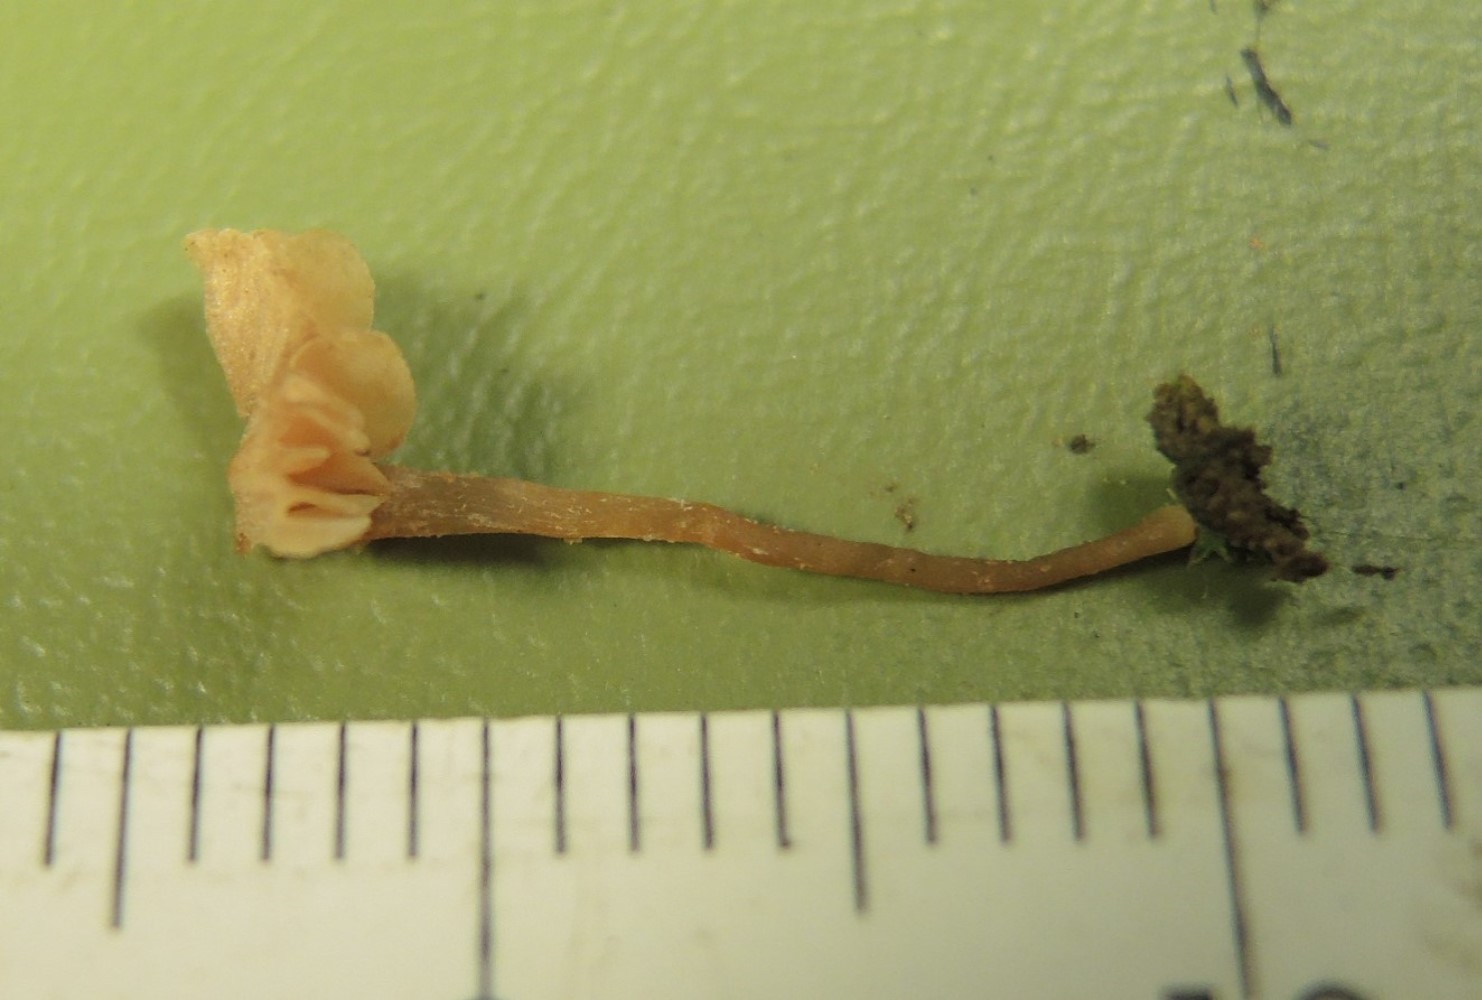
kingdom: Fungi
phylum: Basidiomycota
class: Agaricomycetes
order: Agaricales
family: Tubariaceae
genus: Flammulaster
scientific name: Flammulaster speireoides
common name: lillebitte grynskælhat
